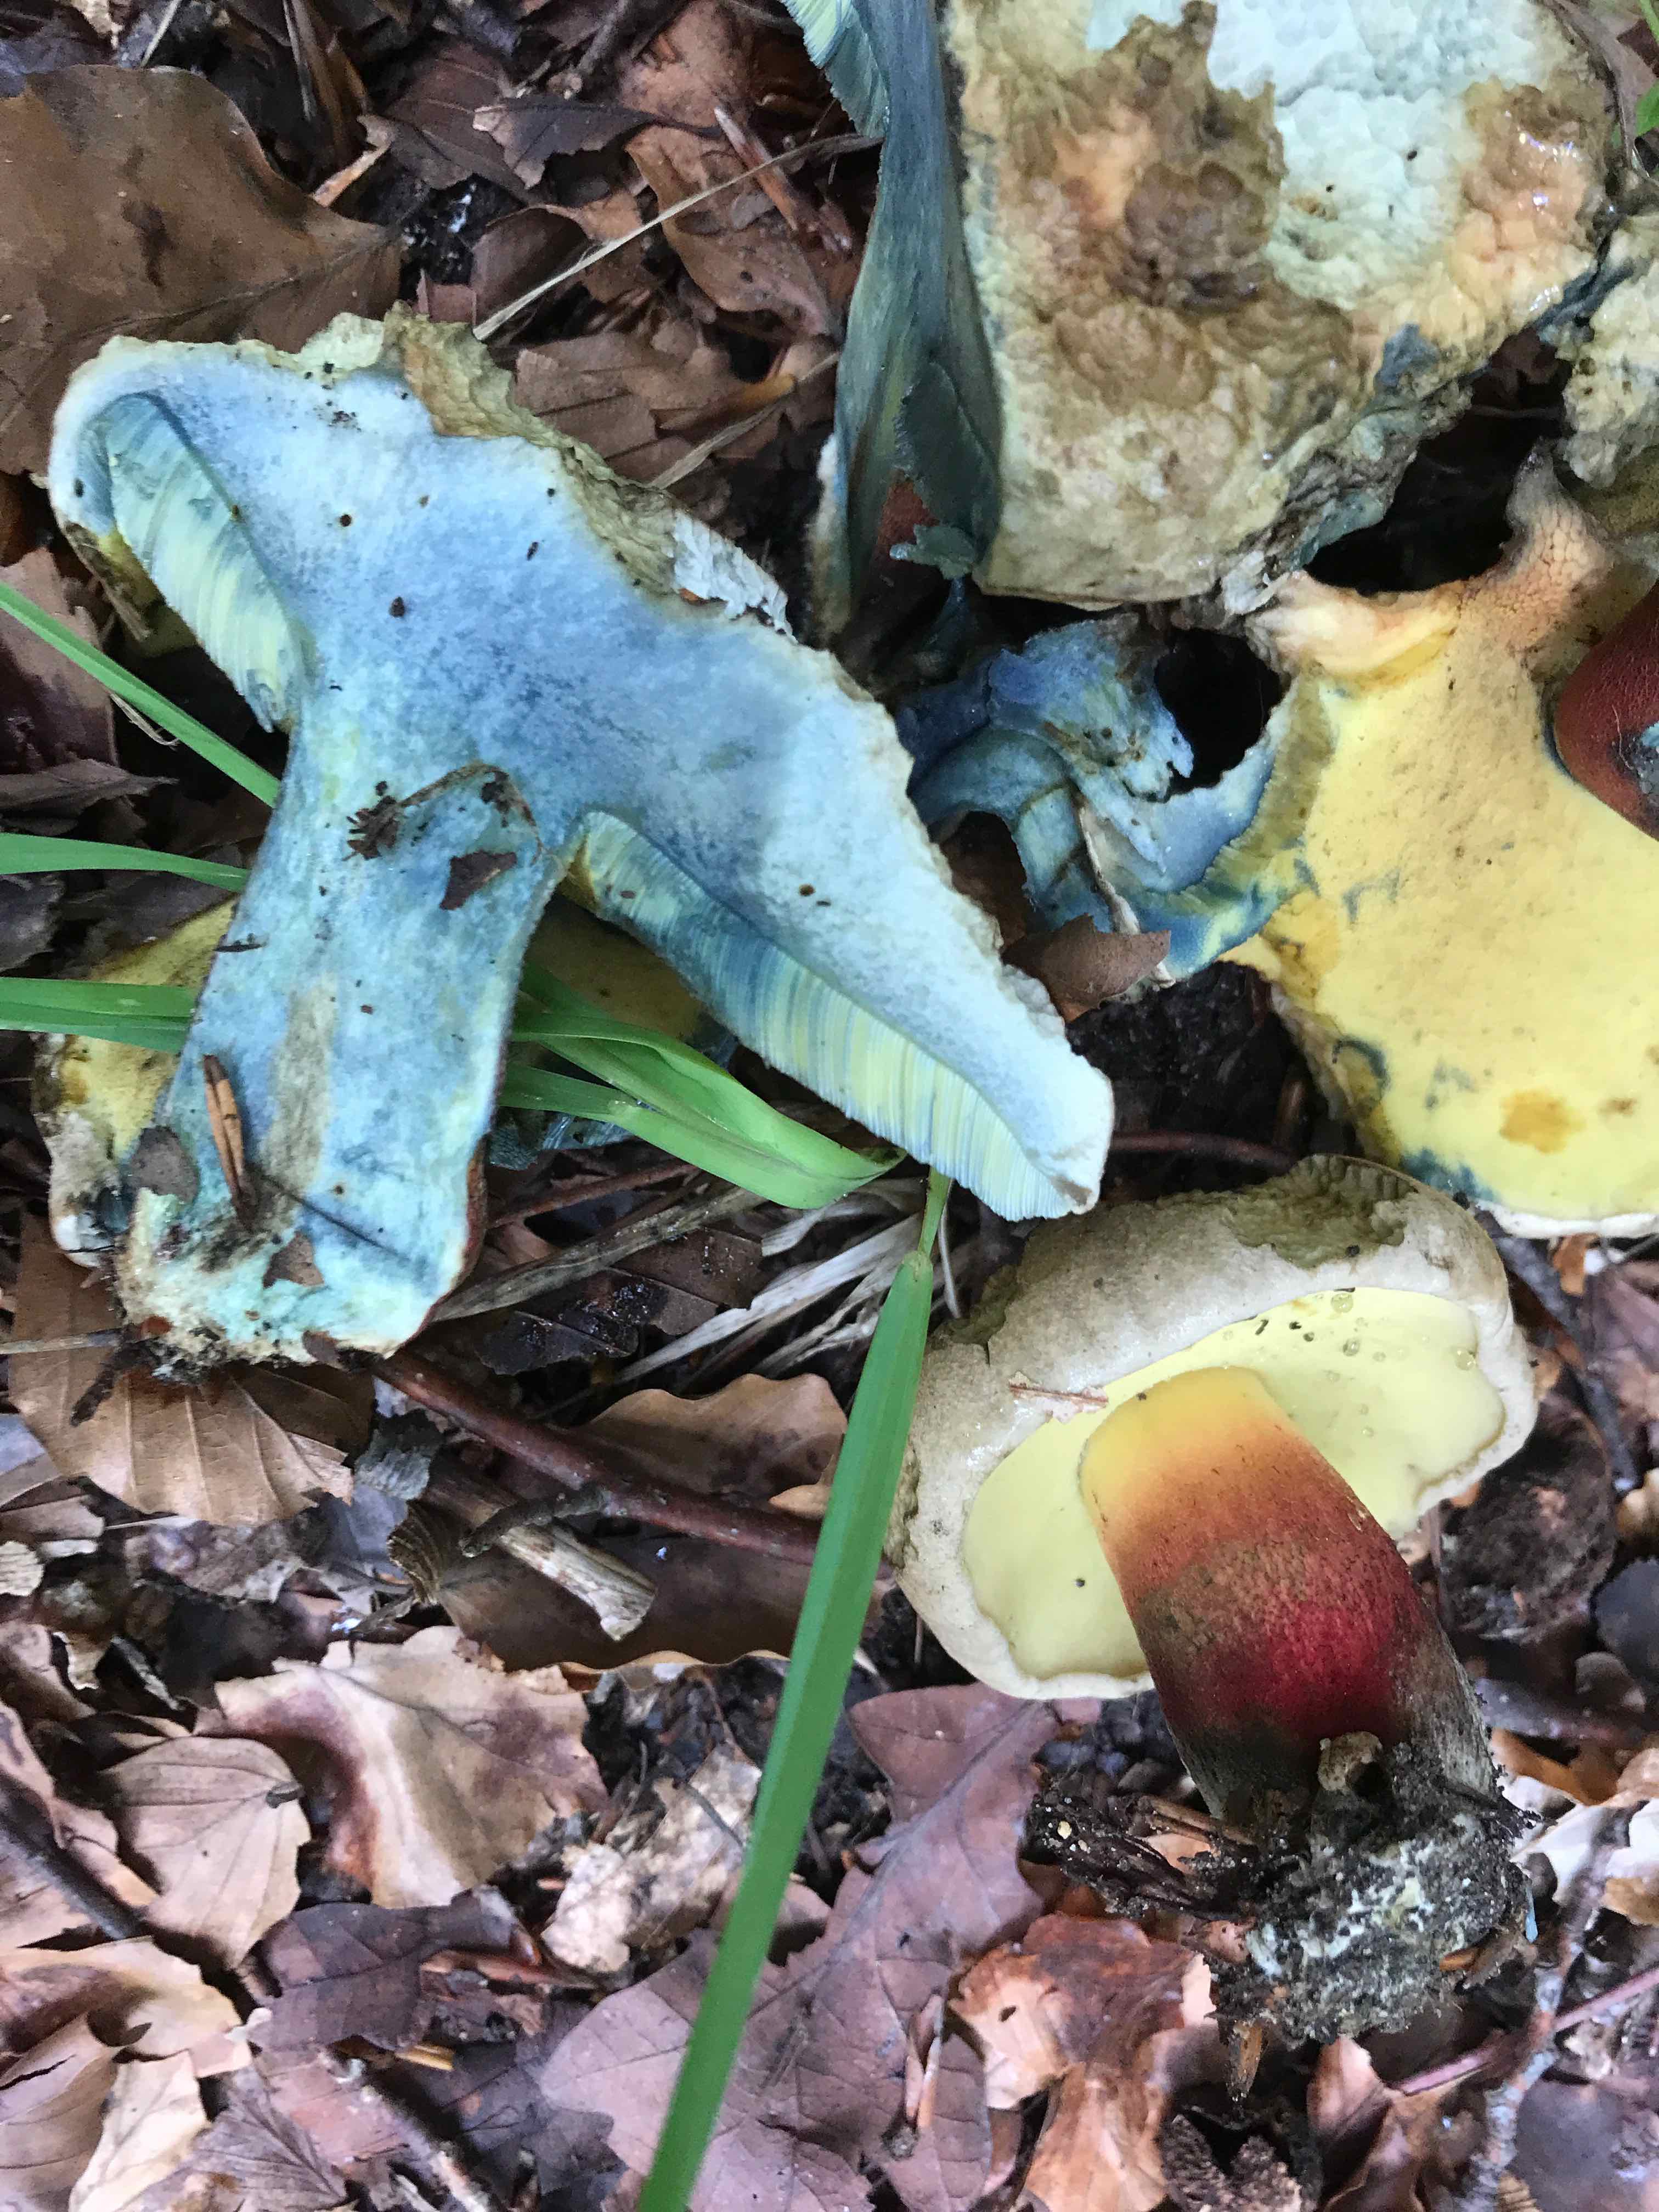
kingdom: Fungi
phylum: Basidiomycota
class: Agaricomycetes
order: Boletales
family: Boletaceae
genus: Caloboletus
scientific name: Caloboletus calopus
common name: skønfodet rørhat
